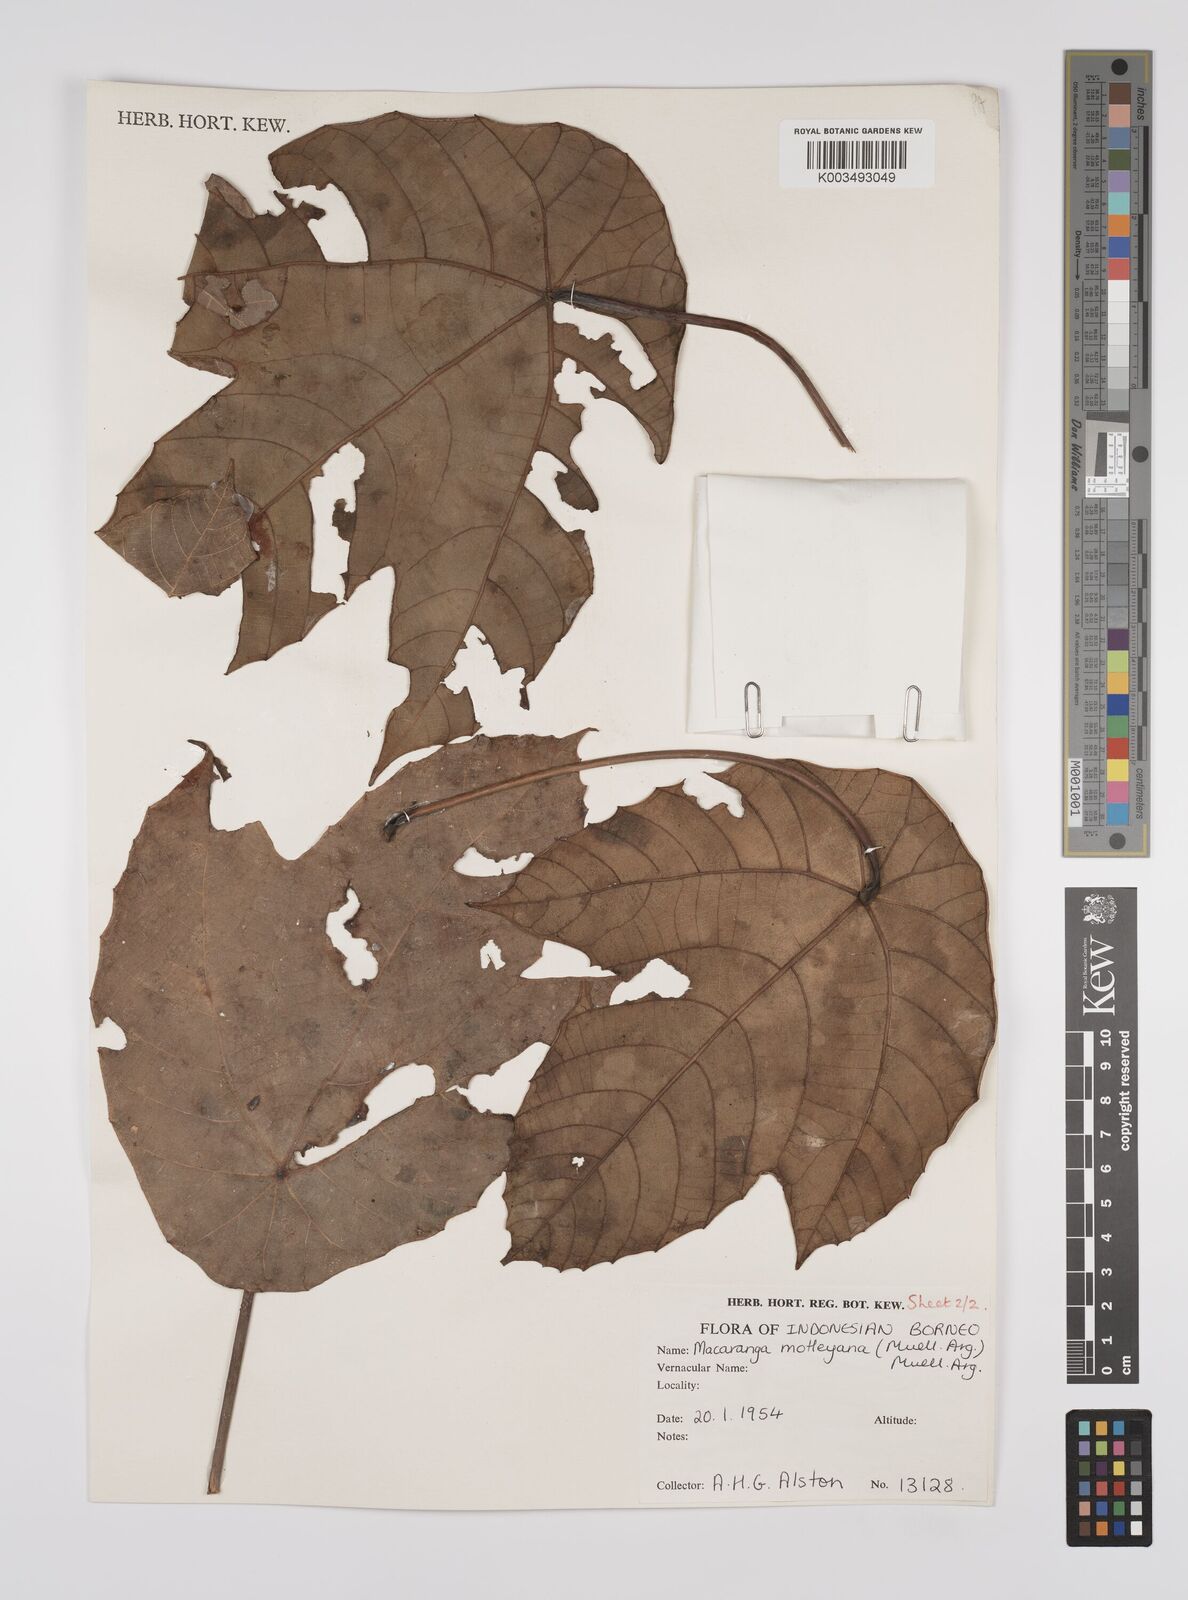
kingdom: Plantae
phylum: Tracheophyta
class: Magnoliopsida
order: Malpighiales
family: Euphorbiaceae
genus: Macaranga
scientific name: Macaranga motleyana
